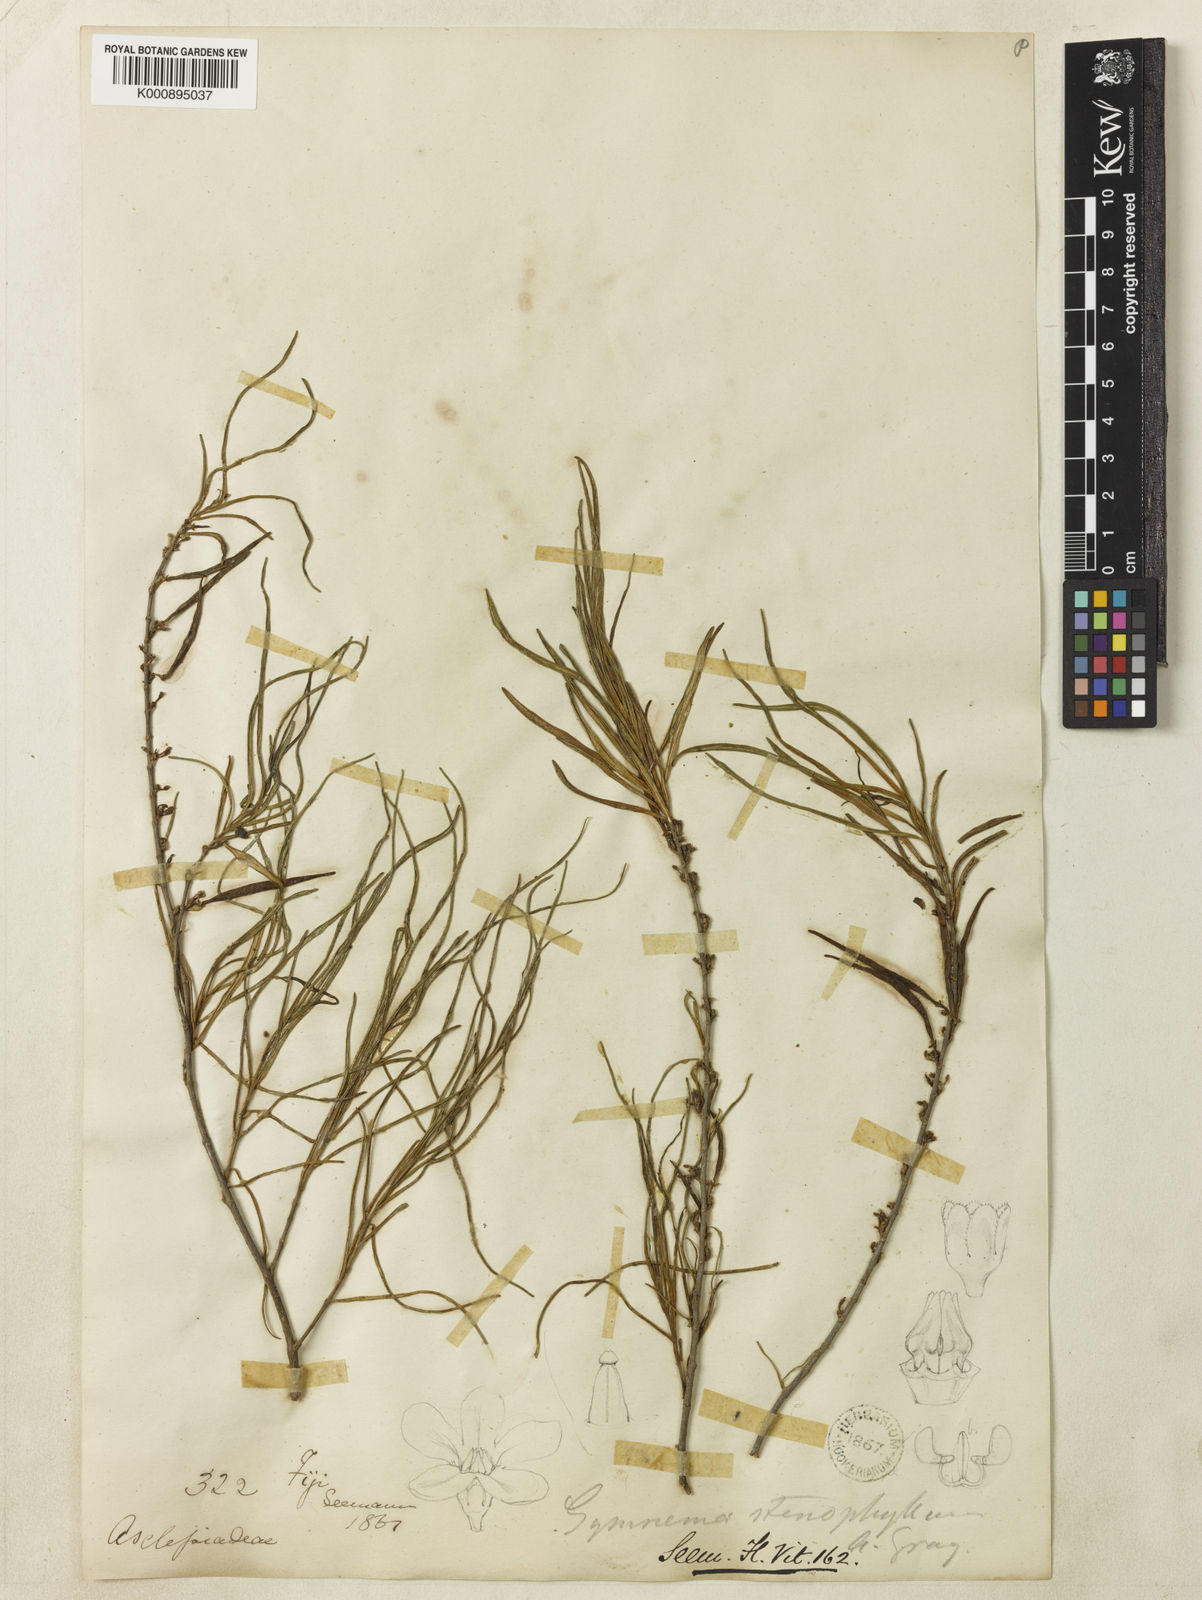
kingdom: Plantae
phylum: Tracheophyta
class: Magnoliopsida
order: Gentianales
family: Apocynaceae
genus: Ruehssia
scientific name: Ruehssia linearis
